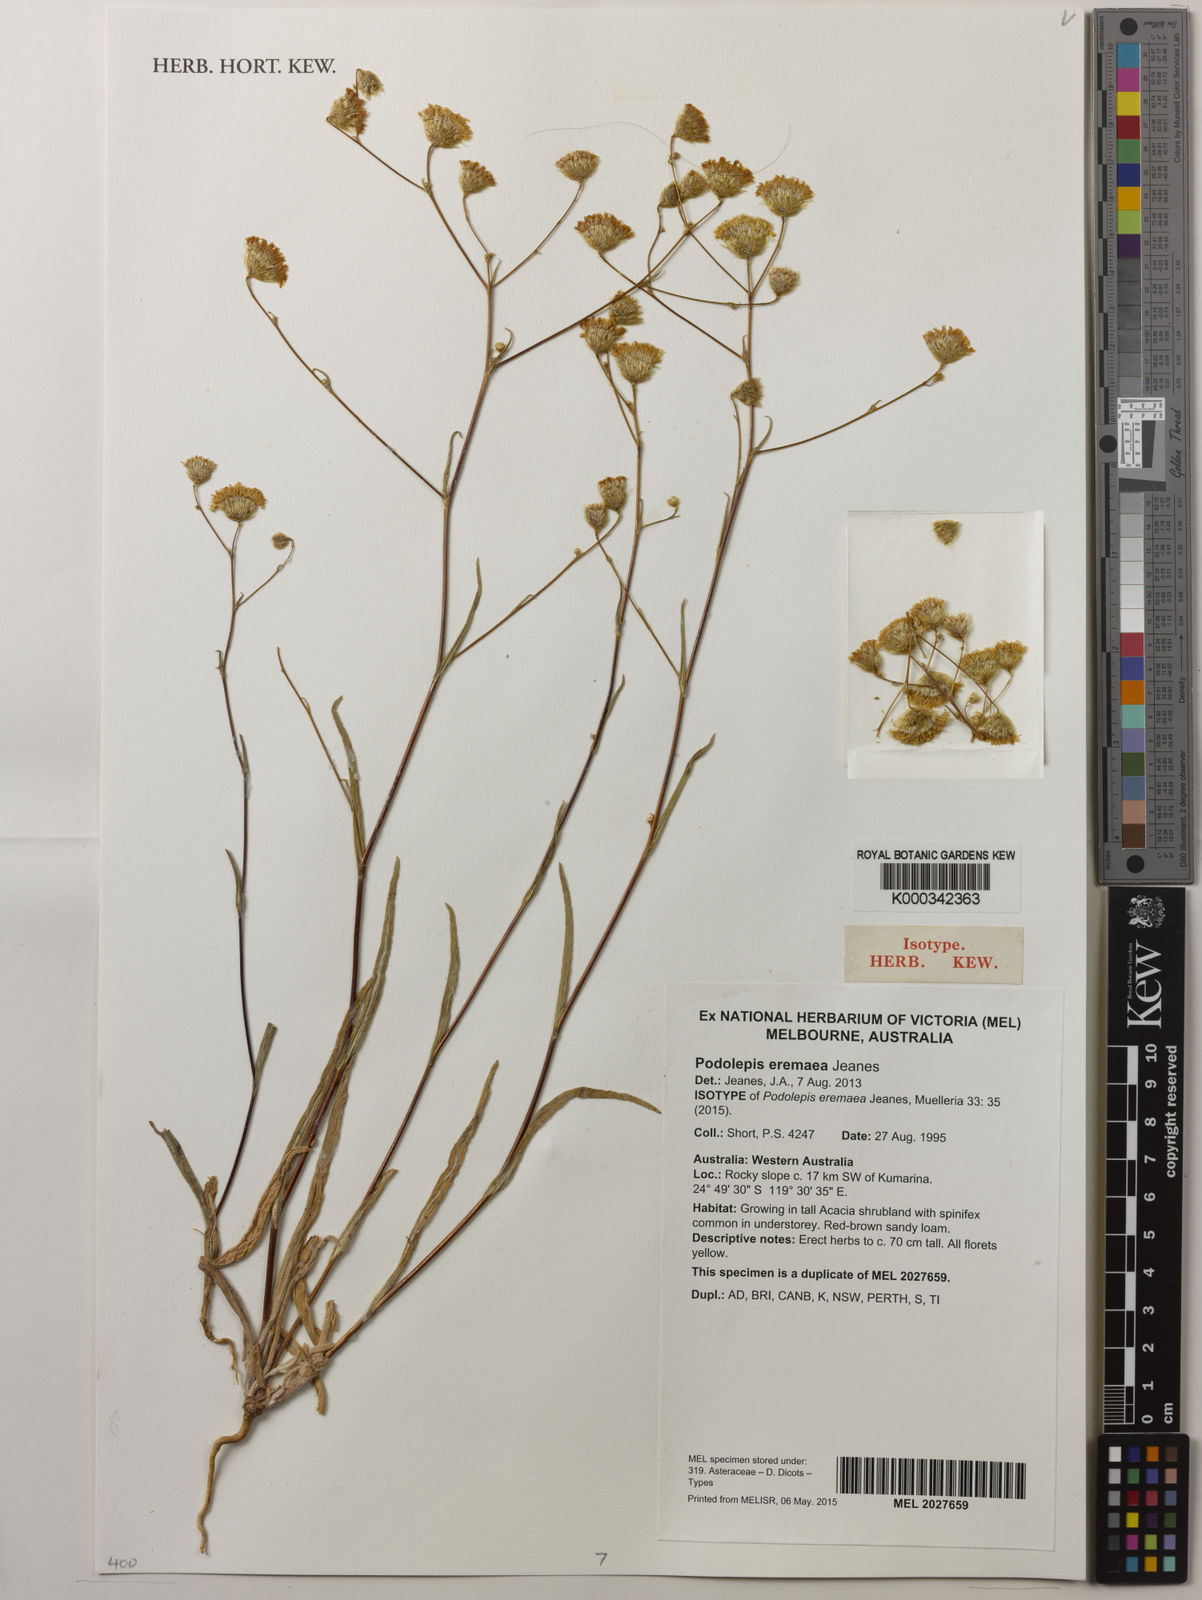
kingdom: Plantae
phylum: Tracheophyta
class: Magnoliopsida
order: Asterales
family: Asteraceae
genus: Podolepis
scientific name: Podolepis eremaea
